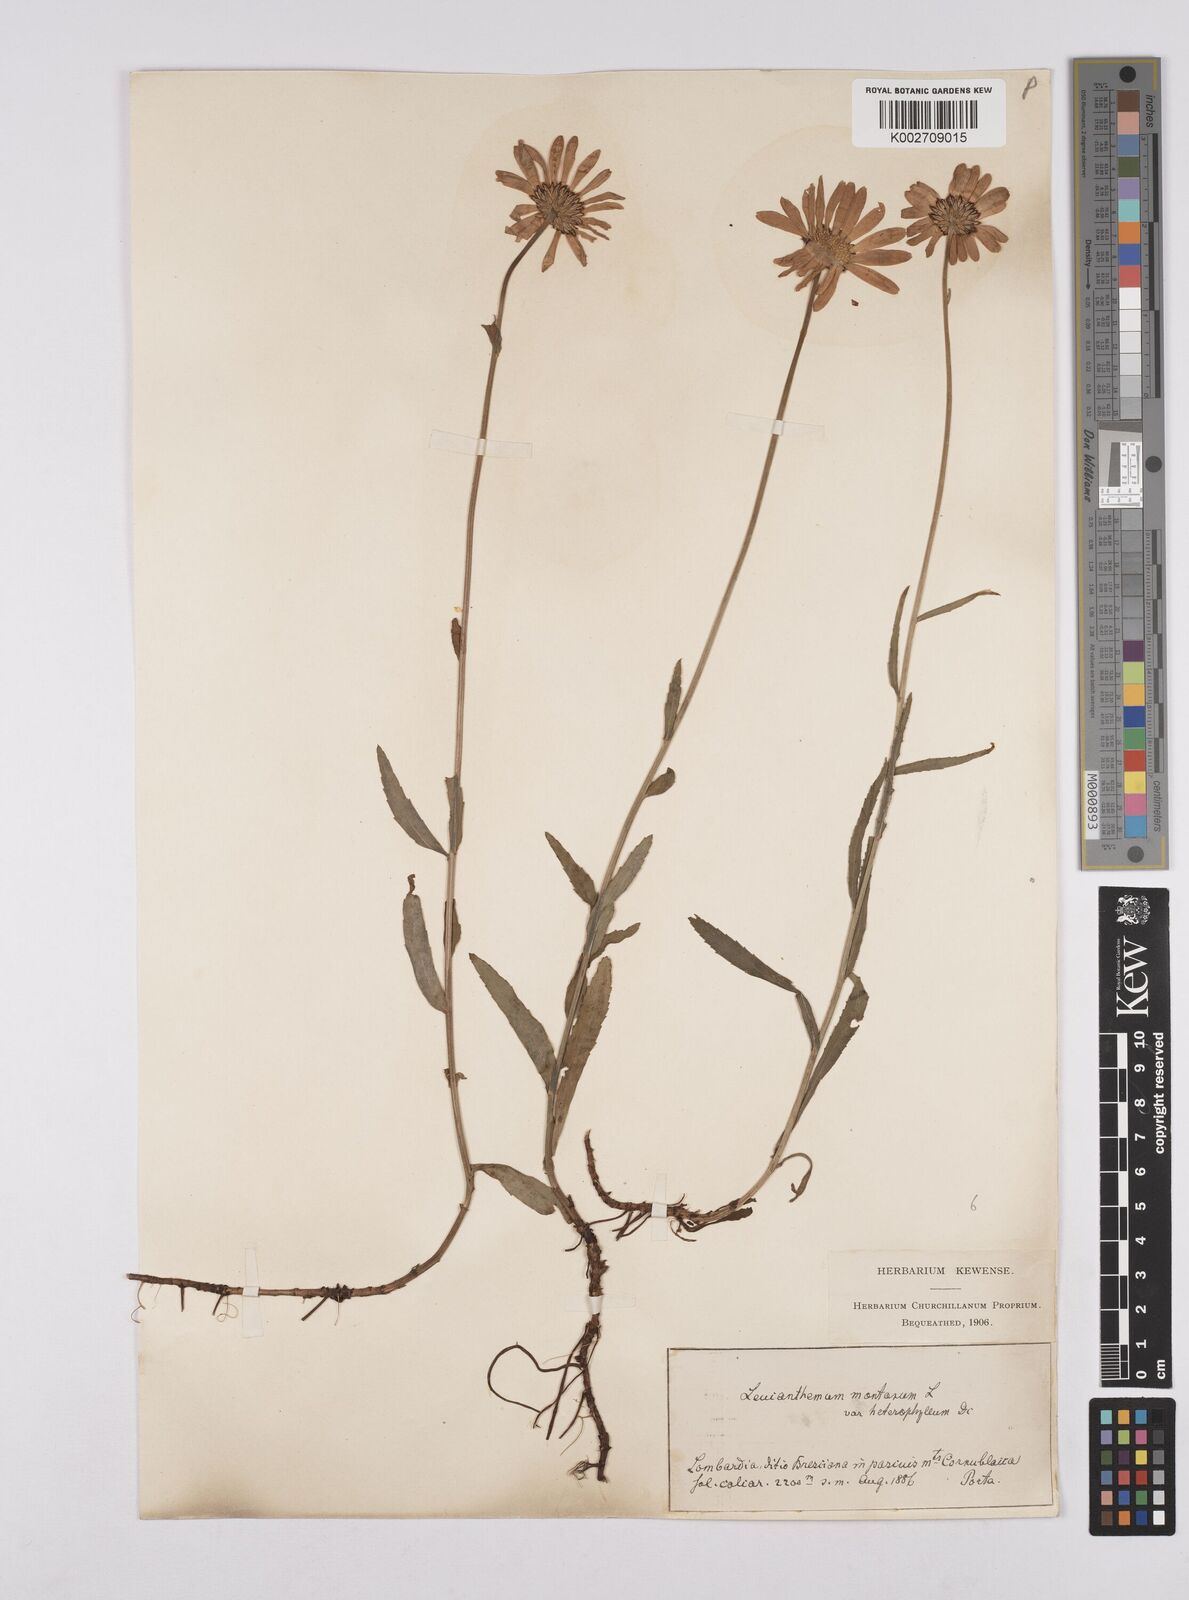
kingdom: Plantae
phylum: Tracheophyta
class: Magnoliopsida
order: Asterales
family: Asteraceae
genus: Leucanthemum
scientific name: Leucanthemum heterophyllum
